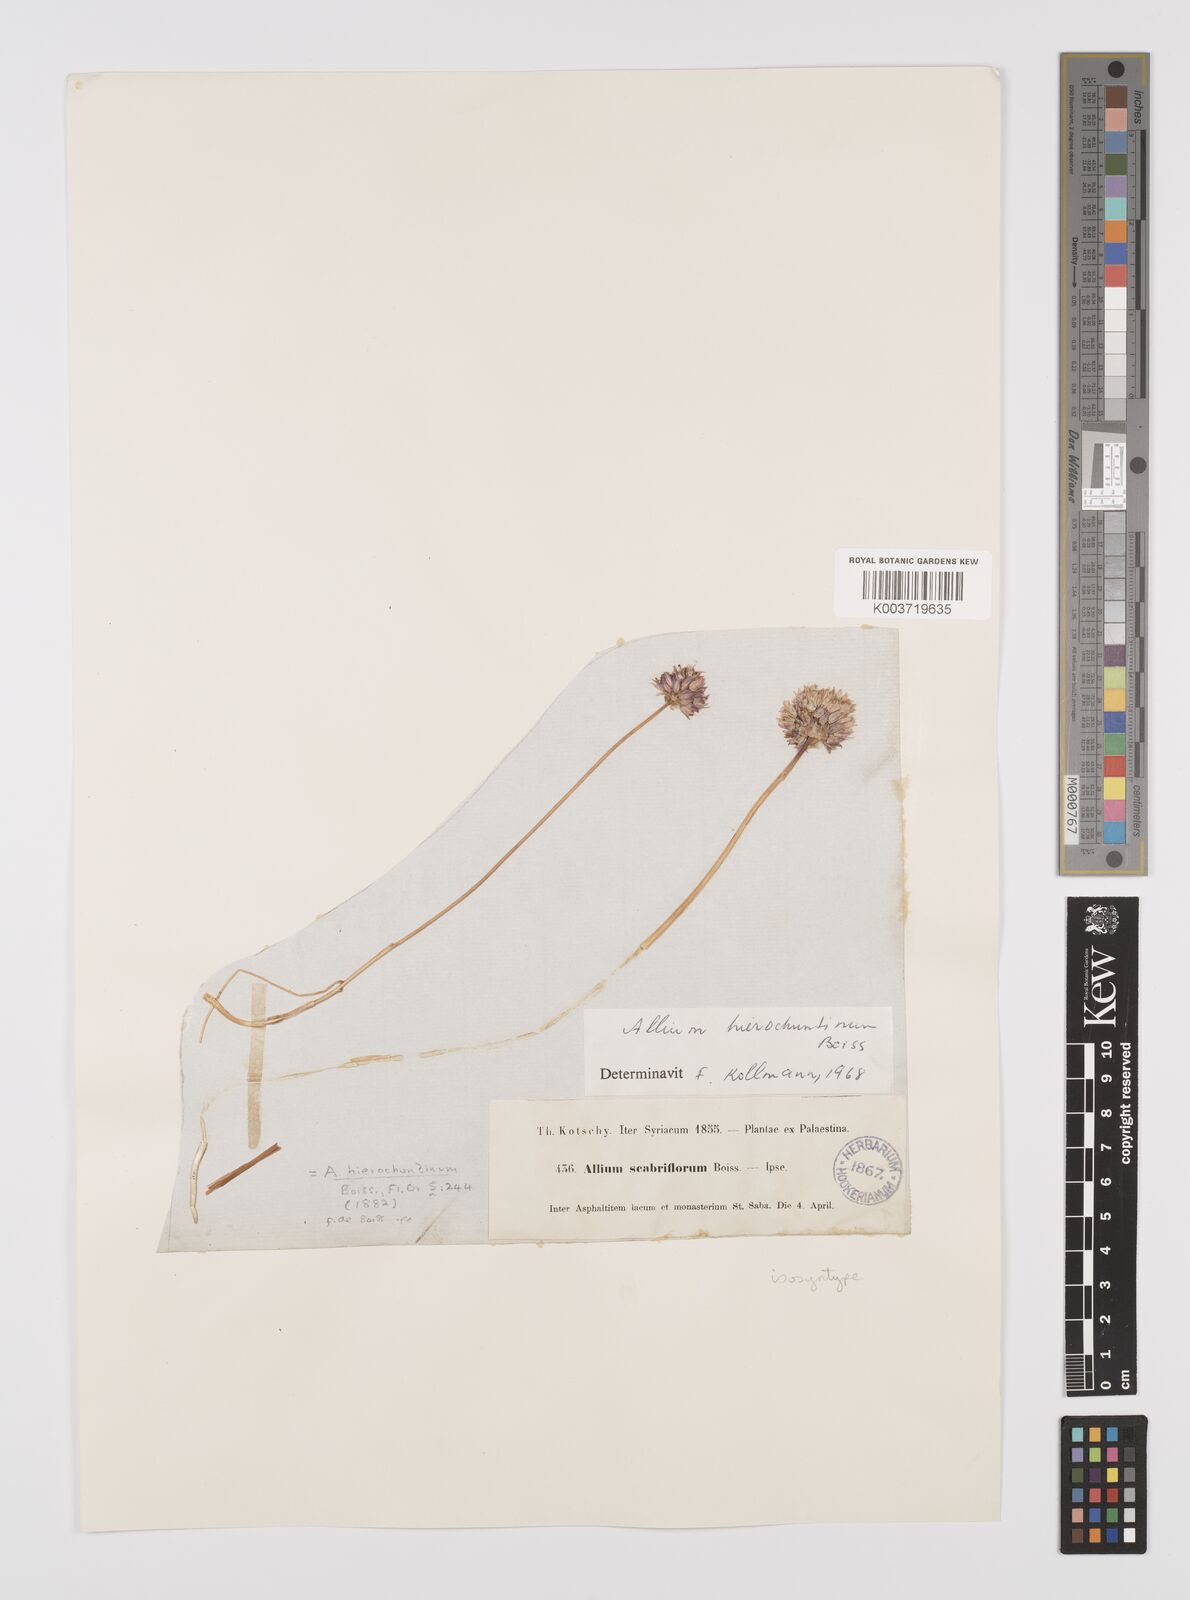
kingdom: Plantae
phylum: Tracheophyta
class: Liliopsida
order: Asparagales
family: Amaryllidaceae
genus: Allium
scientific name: Allium ascalonicum
